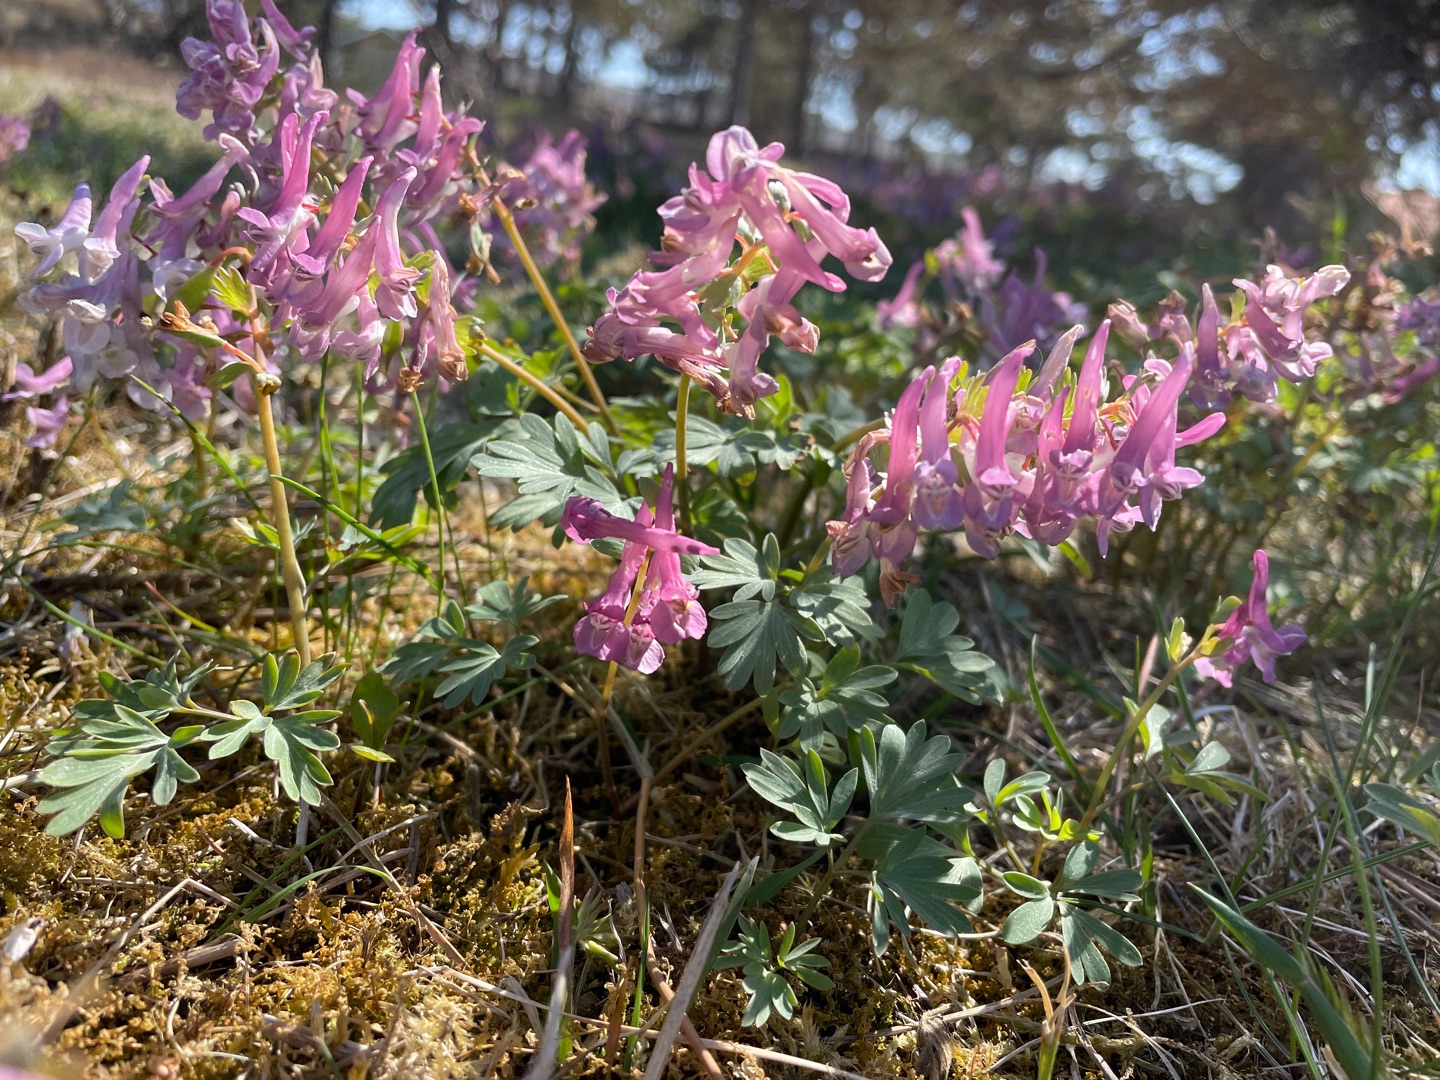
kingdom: Plantae
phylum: Tracheophyta
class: Magnoliopsida
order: Ranunculales
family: Papaveraceae
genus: Corydalis
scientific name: Corydalis solida
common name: Langstilket lærkespore
